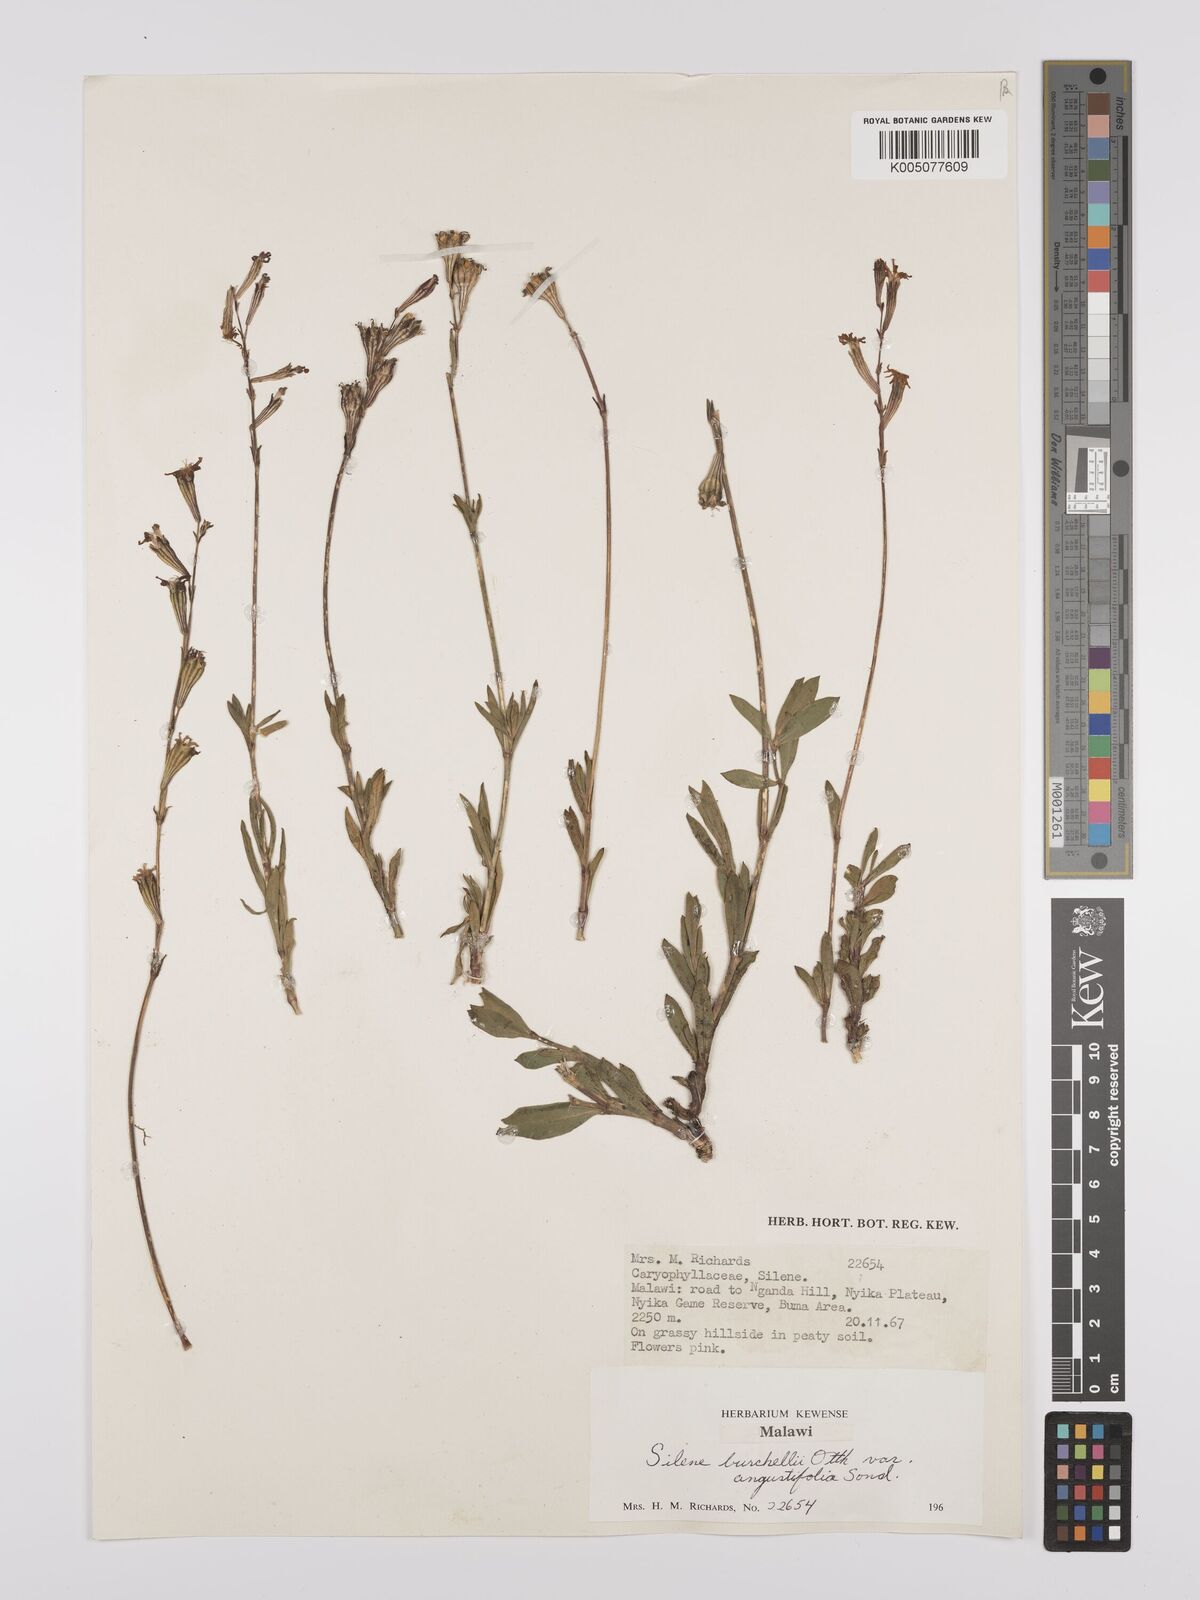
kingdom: Plantae
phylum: Tracheophyta
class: Magnoliopsida
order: Caryophyllales
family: Caryophyllaceae
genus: Silene
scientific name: Silene burchellii
